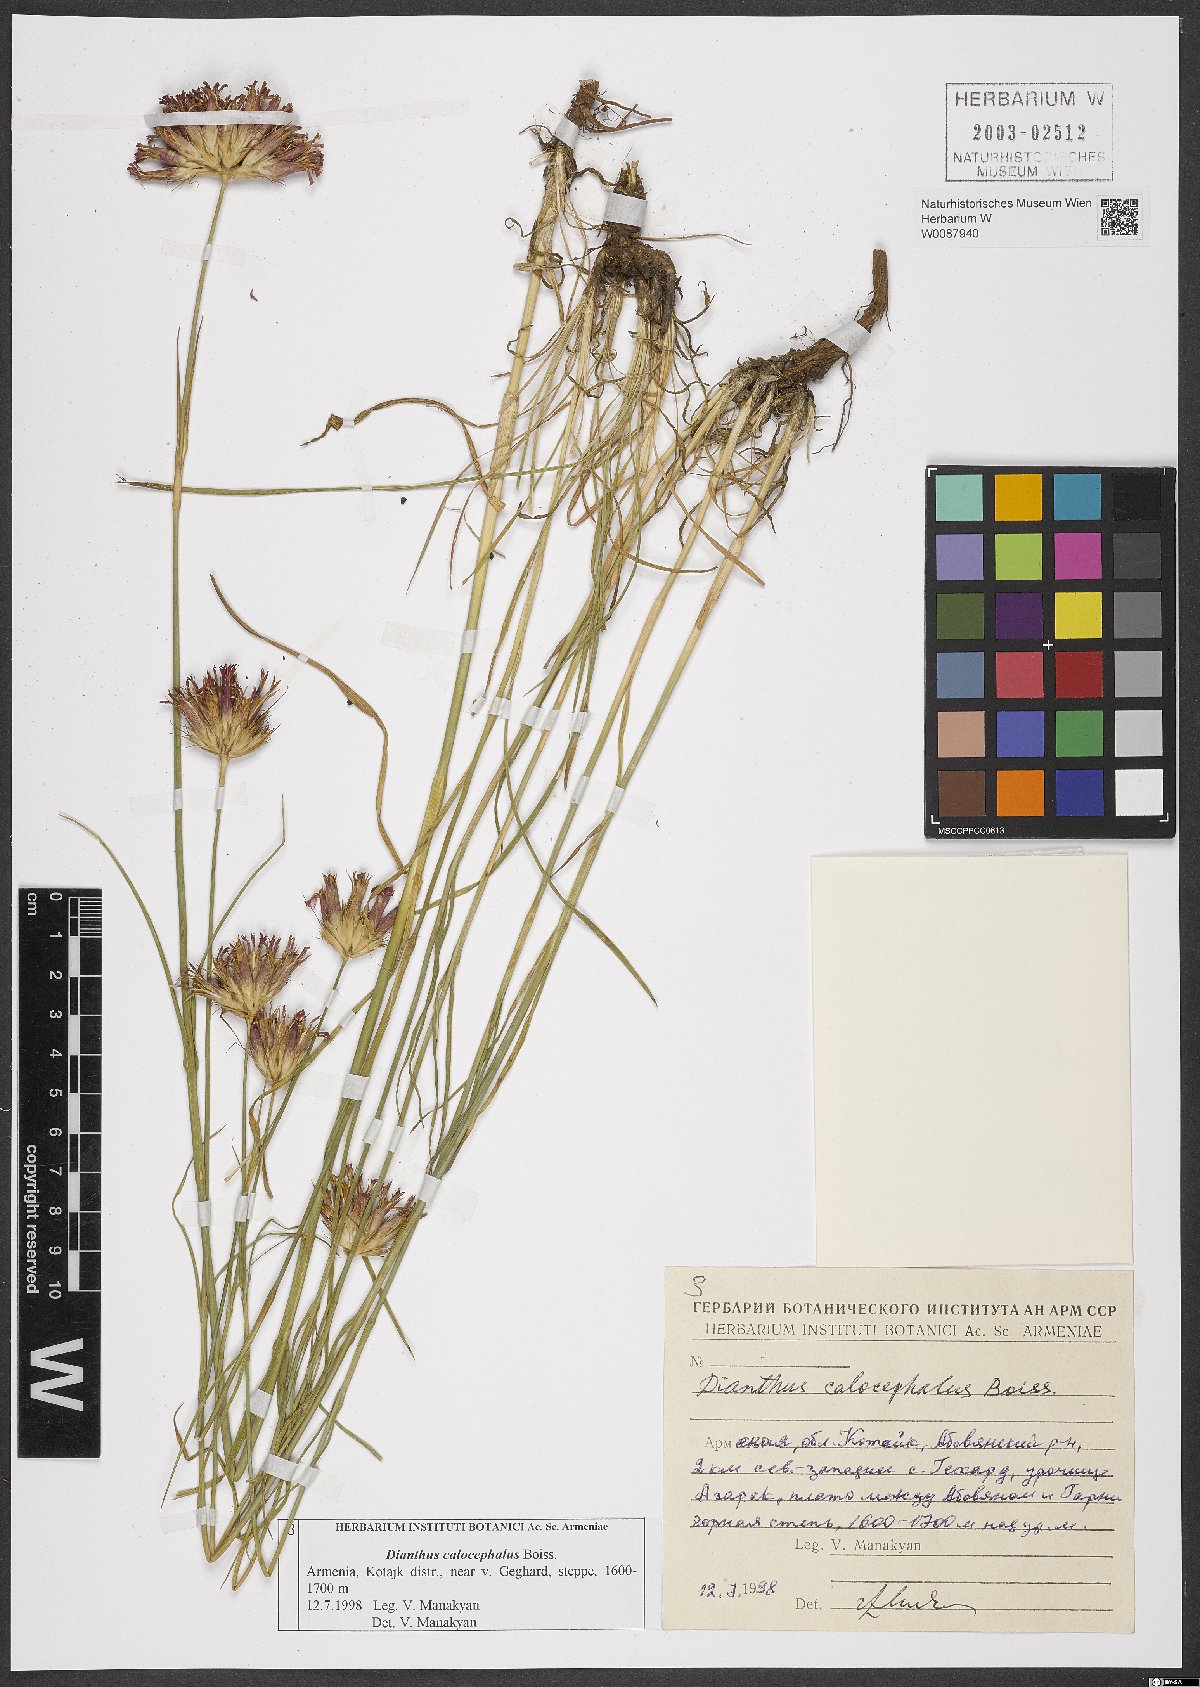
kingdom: Plantae
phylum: Tracheophyta
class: Magnoliopsida
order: Caryophyllales
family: Caryophyllaceae
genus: Dianthus
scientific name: Dianthus cruentus
